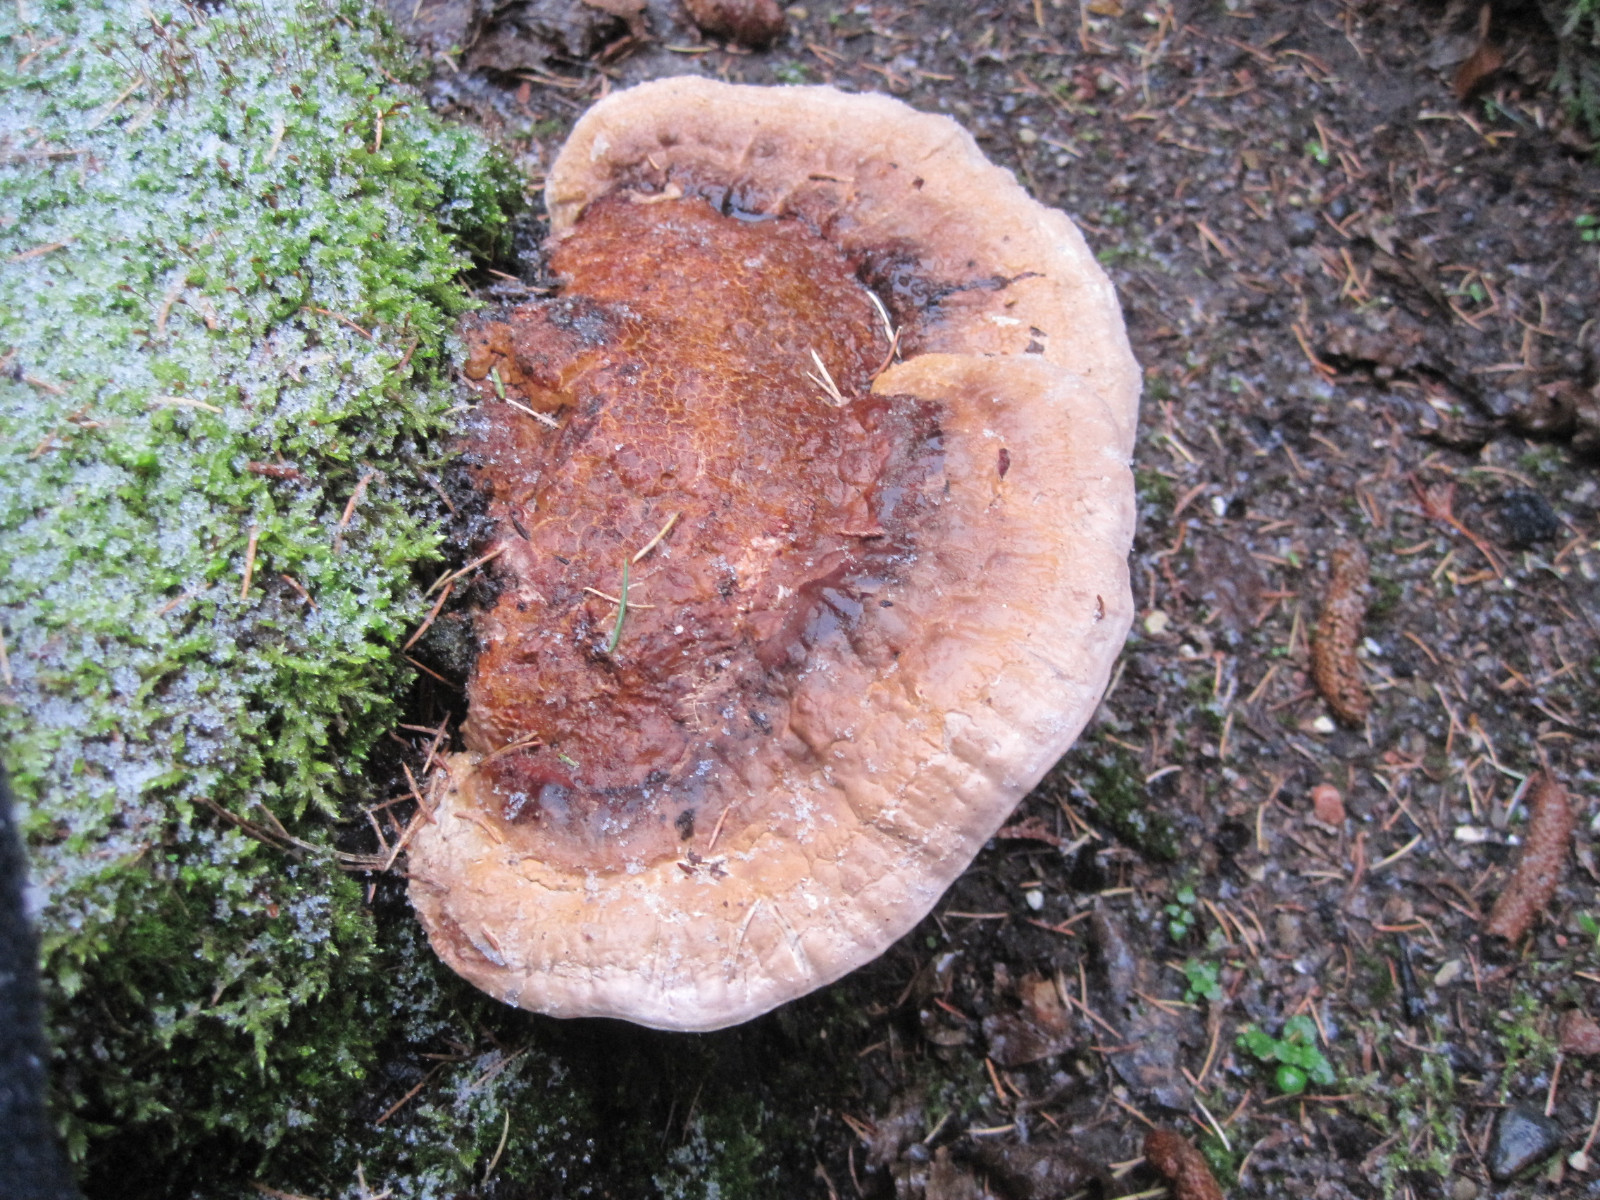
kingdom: Fungi
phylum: Basidiomycota
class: Agaricomycetes
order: Polyporales
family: Fomitopsidaceae
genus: Fomitopsis
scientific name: Fomitopsis pinicola
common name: randbæltet hovporesvamp
